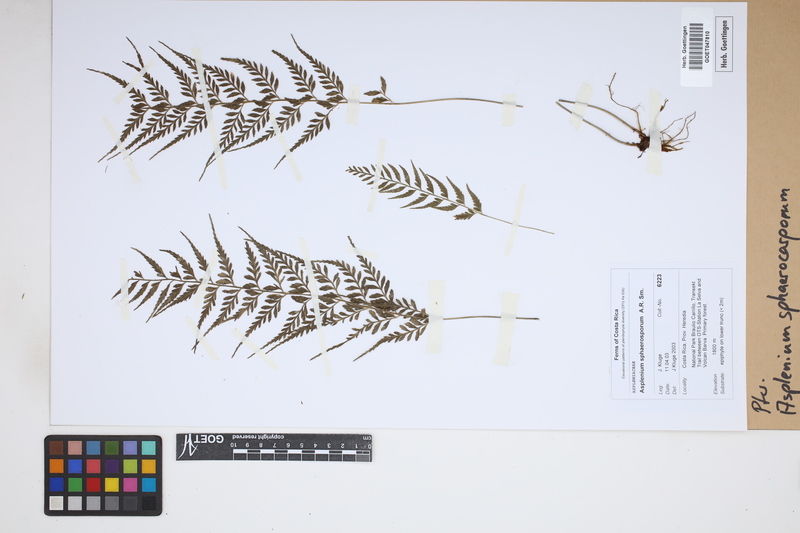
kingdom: Plantae
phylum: Tracheophyta
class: Polypodiopsida
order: Polypodiales
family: Aspleniaceae
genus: Asplenium
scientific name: Asplenium sphaerosporum
